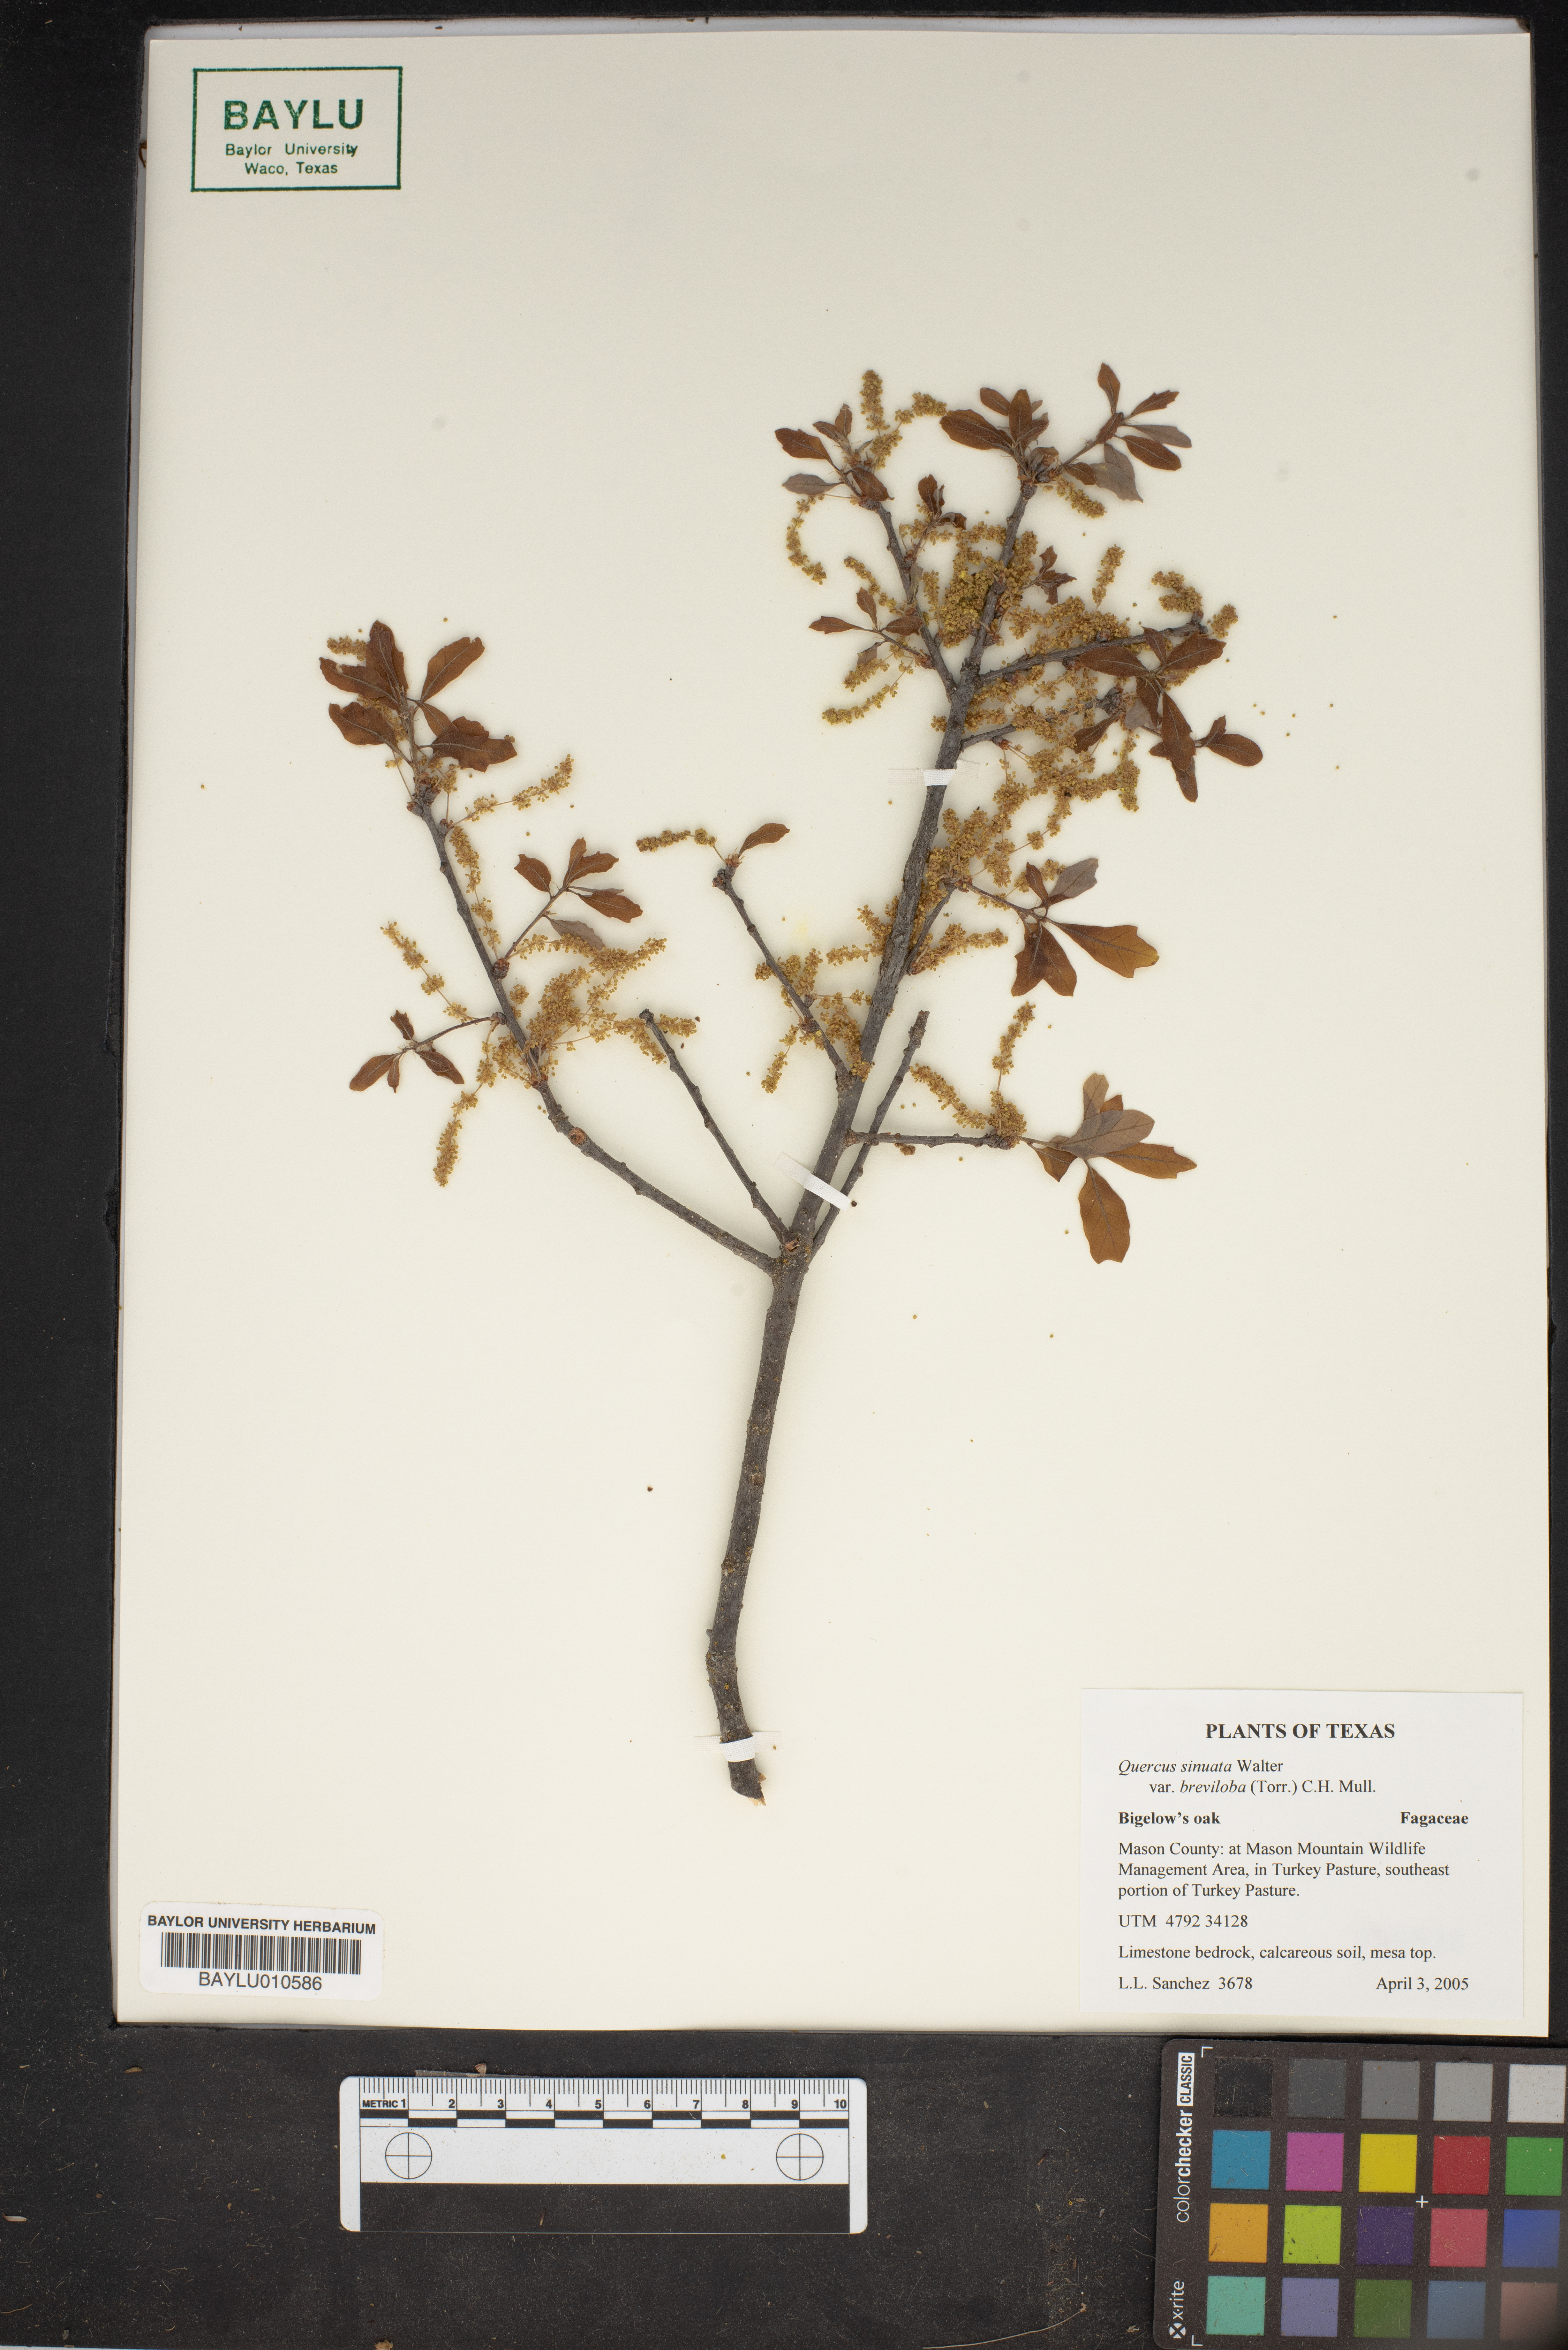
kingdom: Plantae
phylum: Tracheophyta
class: Magnoliopsida
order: Fagales
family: Fagaceae
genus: Quercus
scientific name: Quercus sinuata
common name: Durand oak
